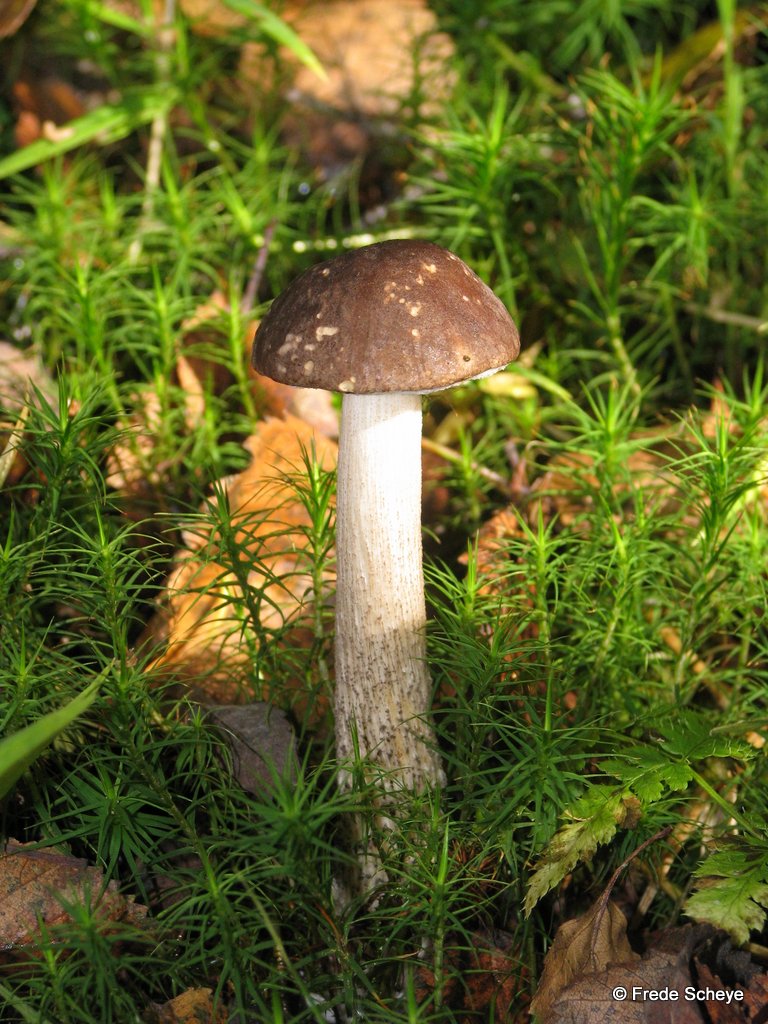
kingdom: Fungi
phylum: Basidiomycota
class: Agaricomycetes
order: Boletales
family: Boletaceae
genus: Leccinum
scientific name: Leccinum scabrum
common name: brun skælrørhat
